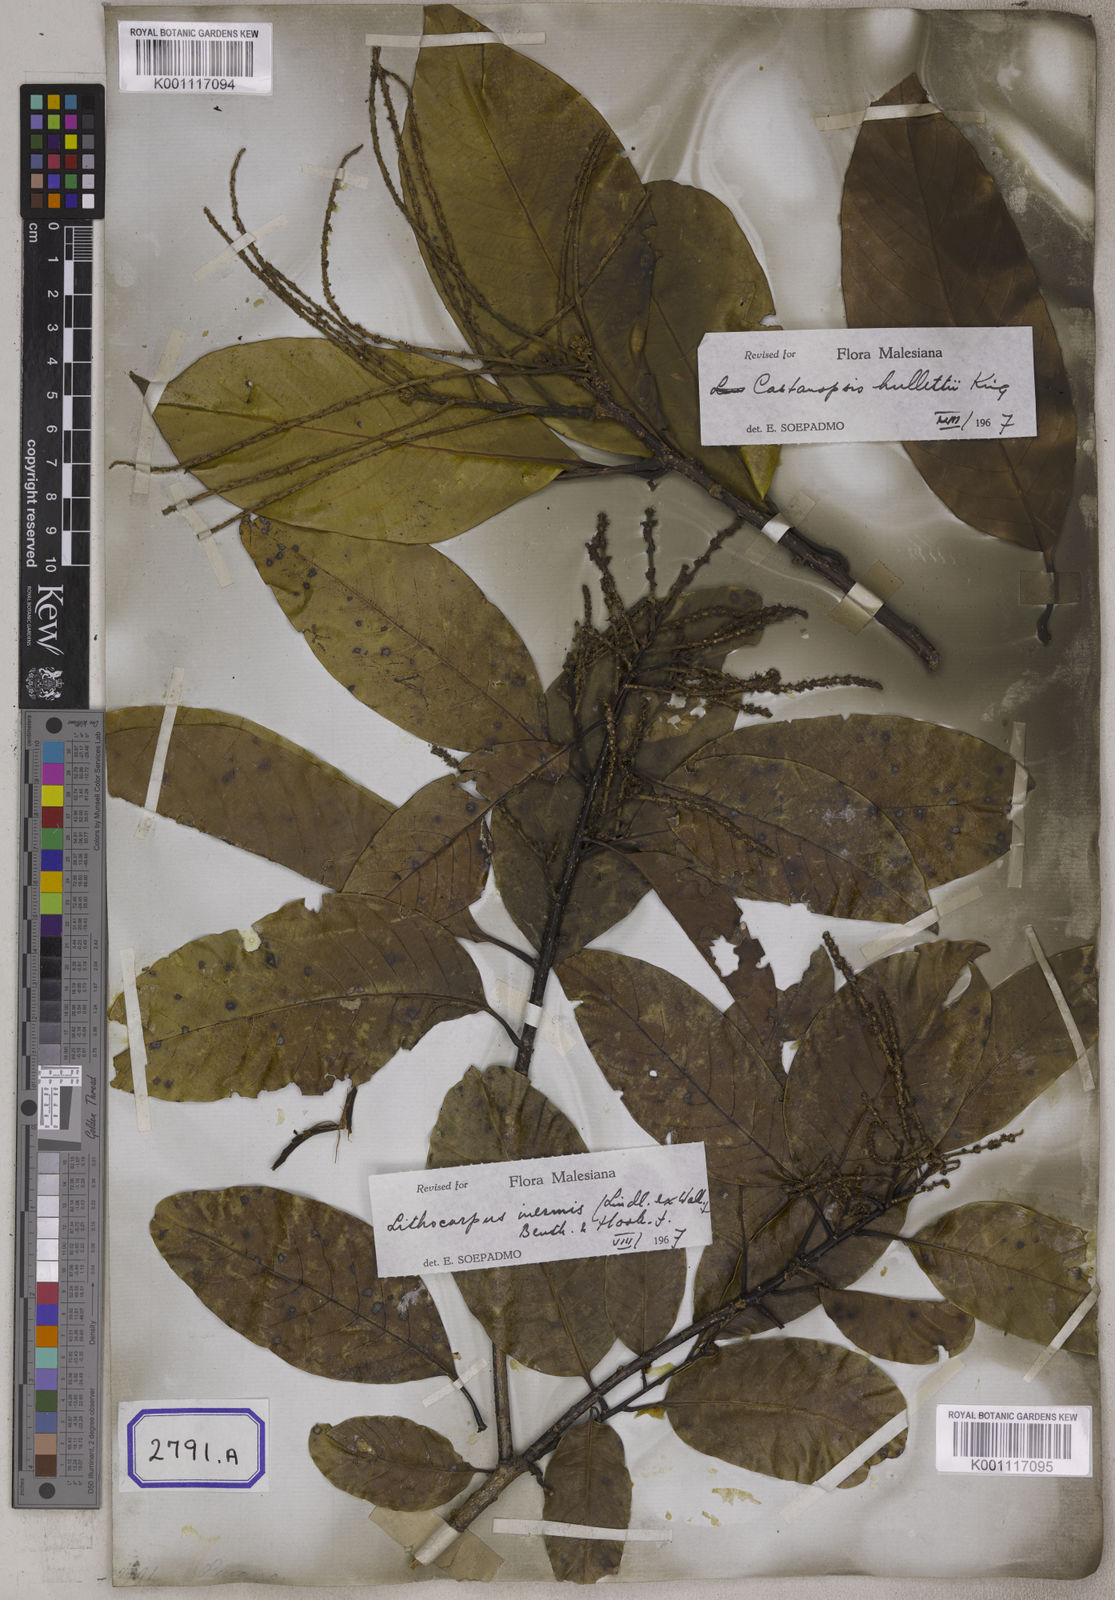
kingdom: Plantae
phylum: Tracheophyta
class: Magnoliopsida
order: Fagales
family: Fagaceae
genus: Castanopsis
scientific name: Castanopsis inermis
